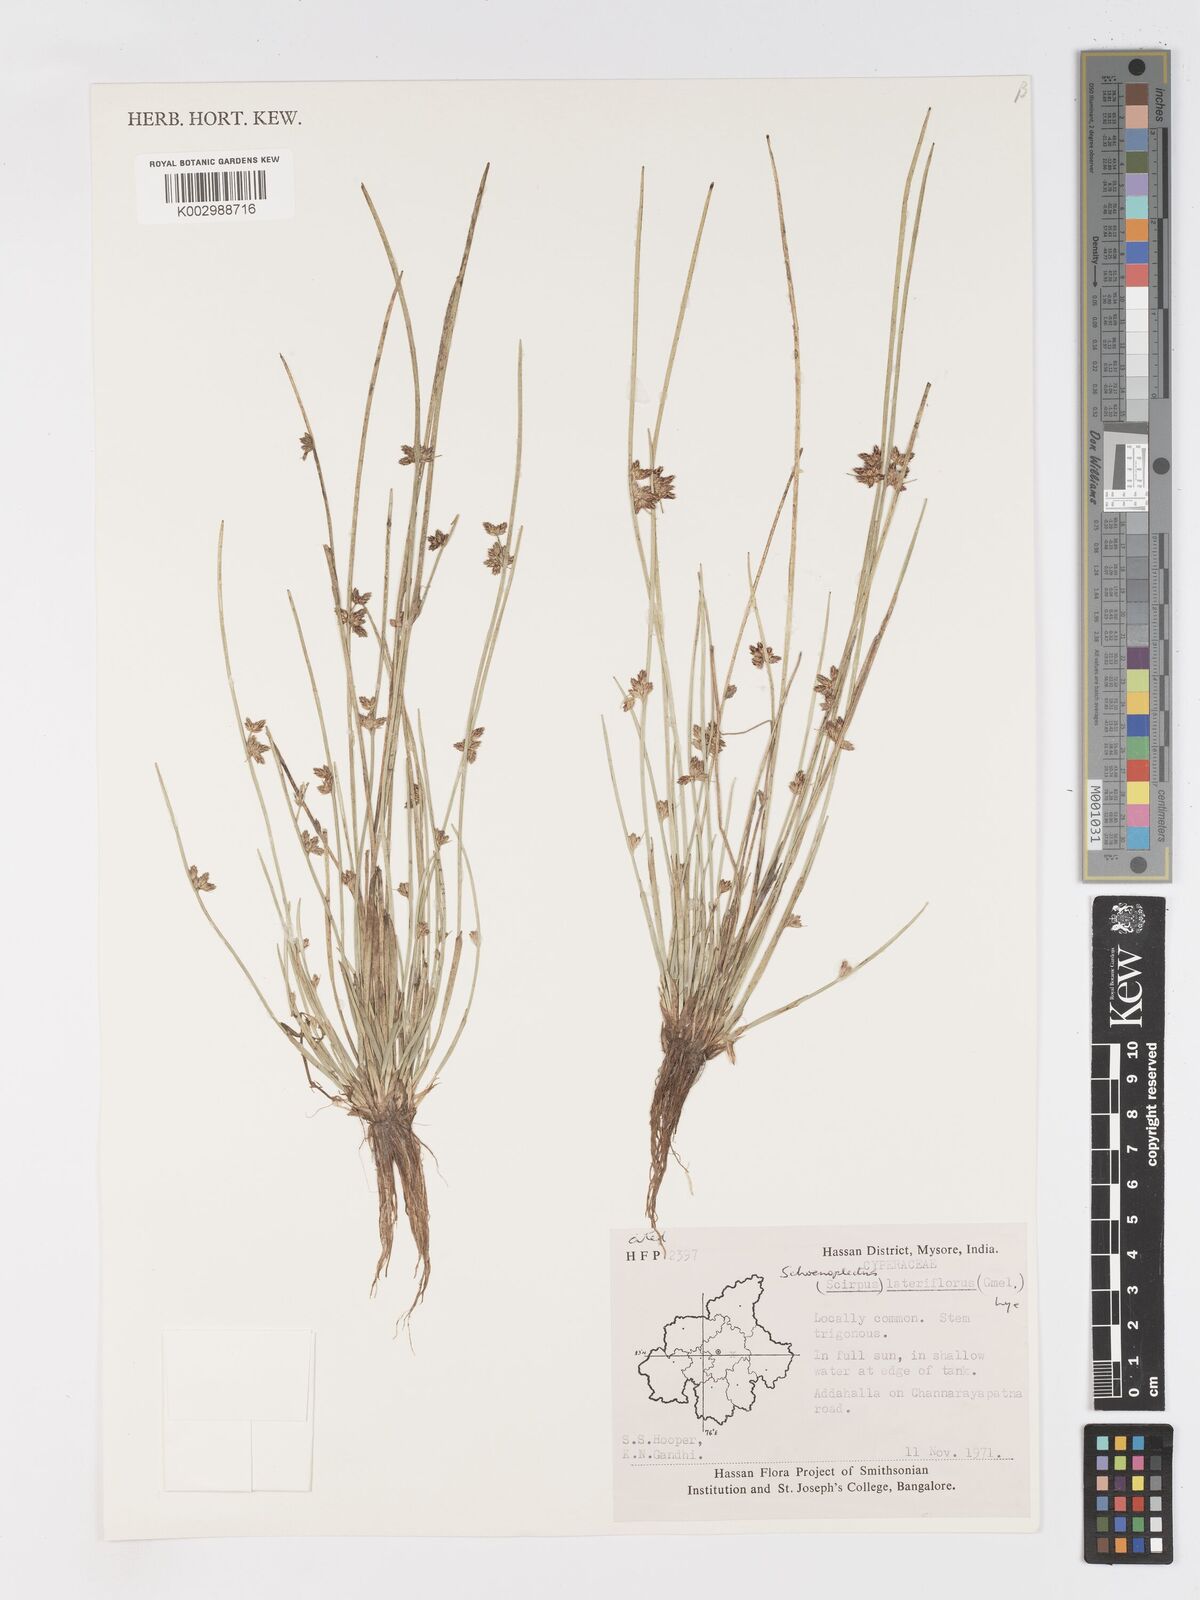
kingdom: Plantae
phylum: Tracheophyta
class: Liliopsida
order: Poales
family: Cyperaceae
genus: Schoenoplectiella
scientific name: Schoenoplectiella lateriflora
